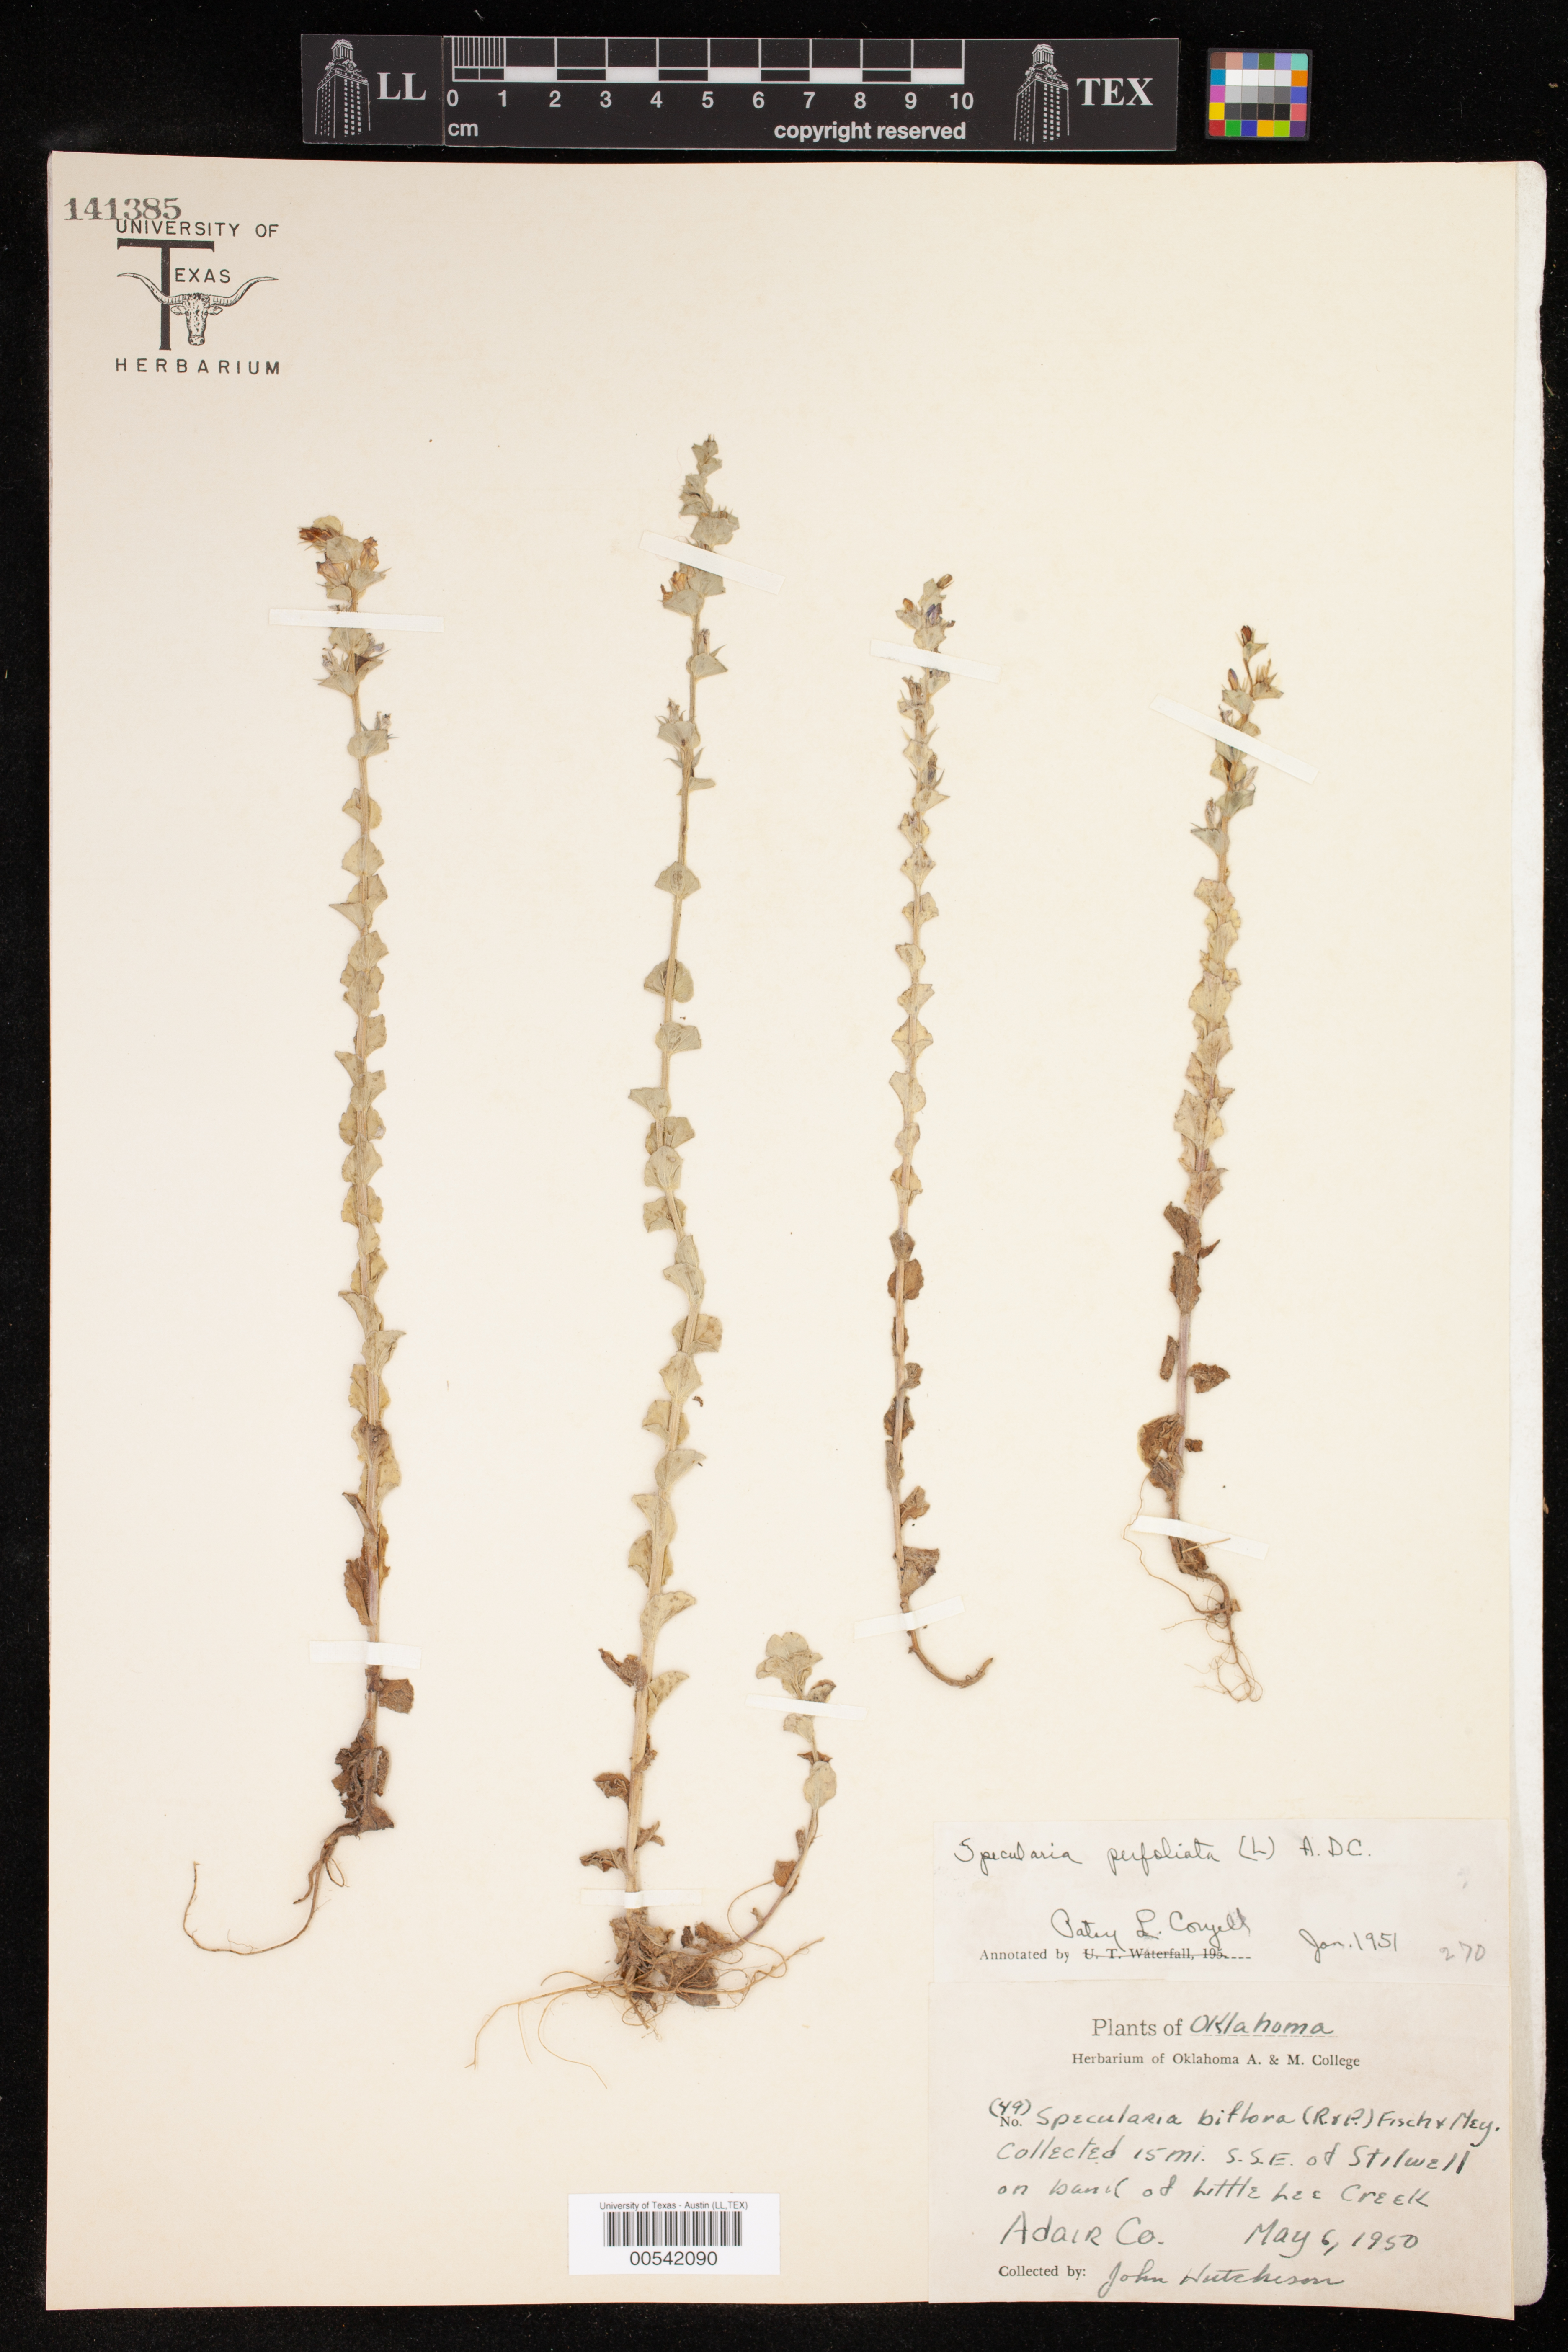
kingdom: Plantae
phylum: Tracheophyta
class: Magnoliopsida
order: Asterales
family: Campanulaceae
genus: Triodanis
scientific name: Triodanis perfoliata
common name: Clasping venus' looking-glass
